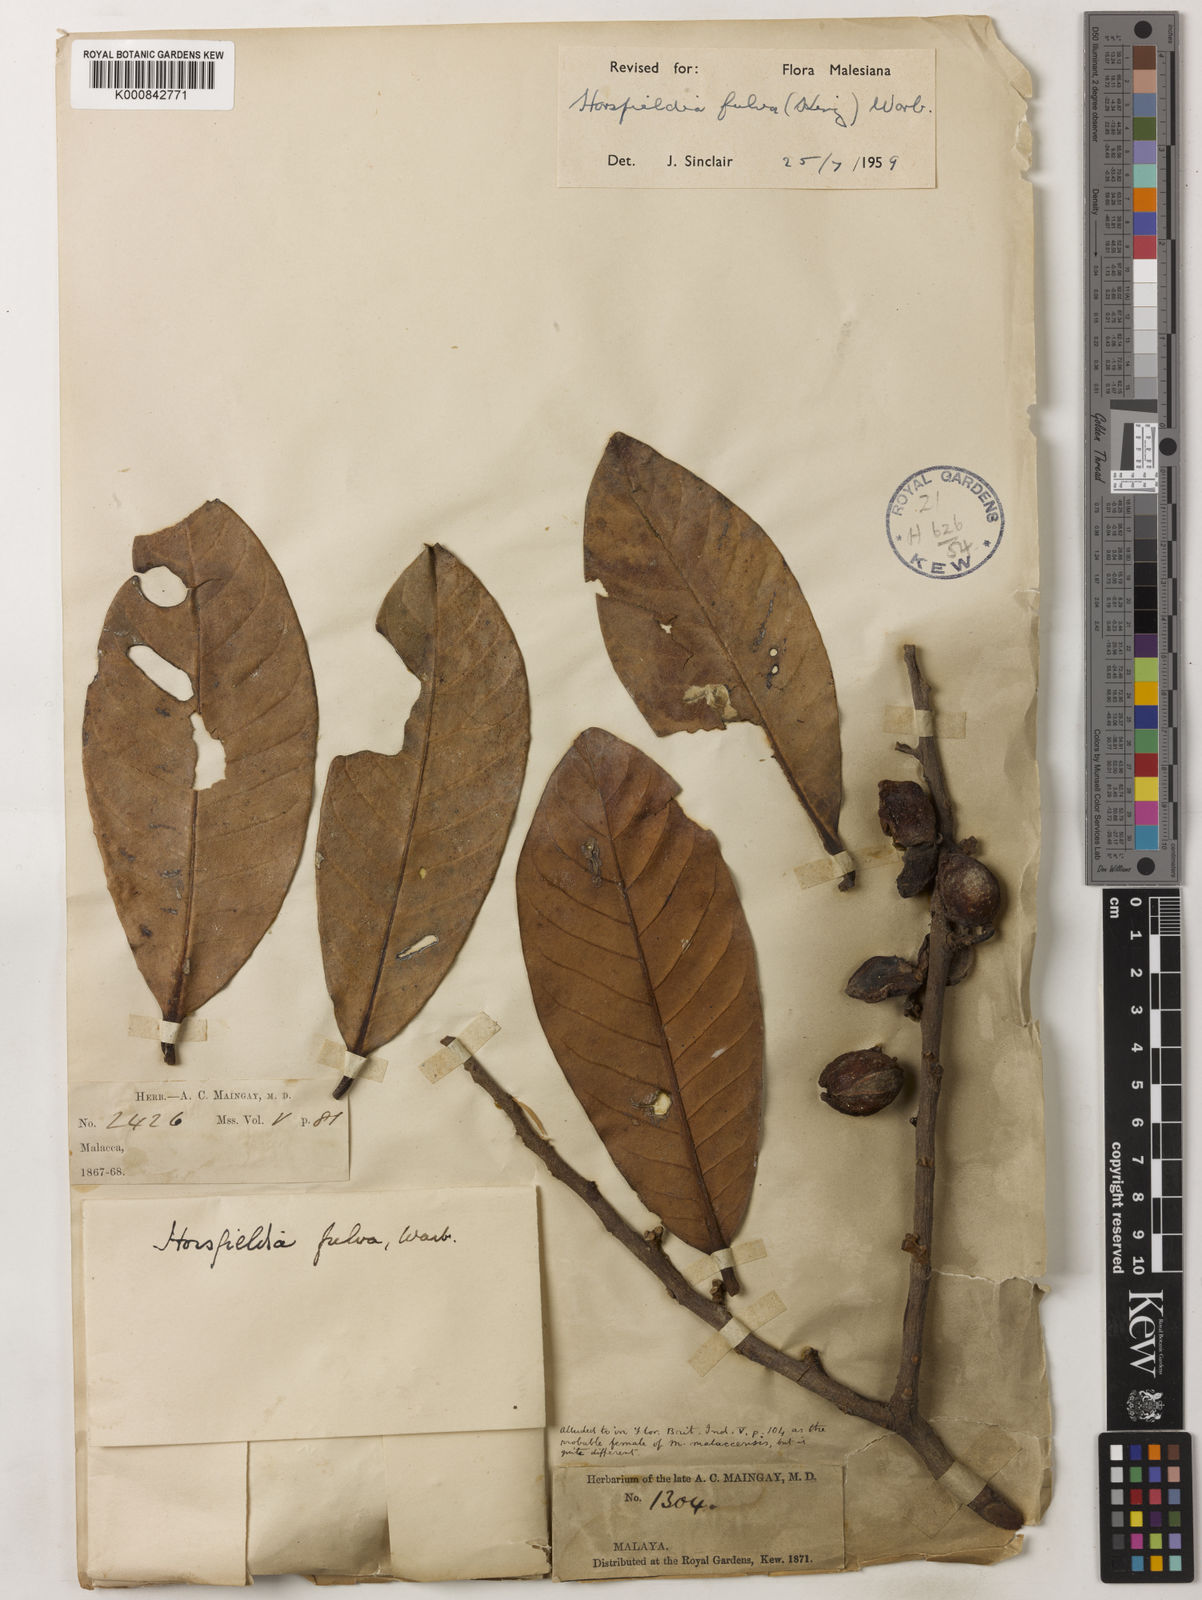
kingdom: Plantae
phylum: Tracheophyta
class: Magnoliopsida
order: Magnoliales
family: Myristicaceae
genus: Horsfieldia
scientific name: Horsfieldia fulva
